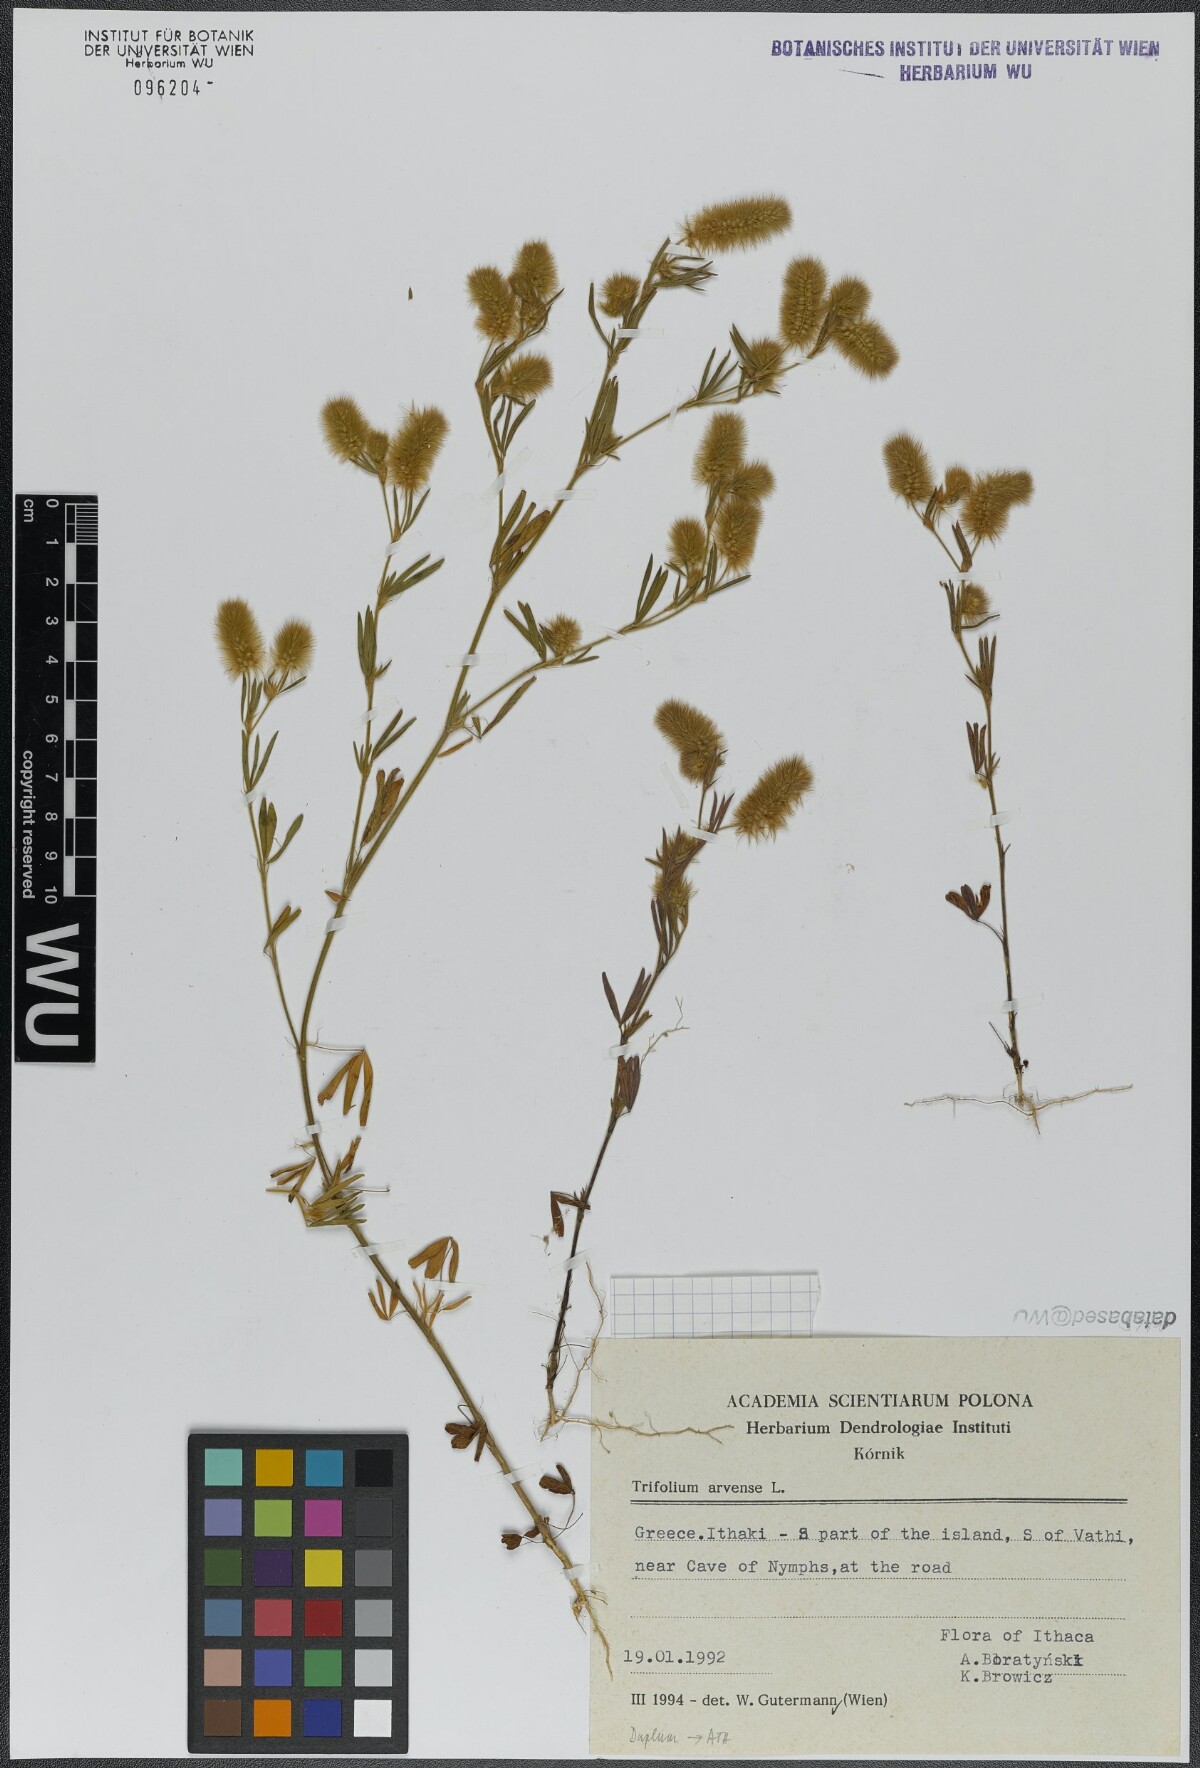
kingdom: Plantae
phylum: Tracheophyta
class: Magnoliopsida
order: Fabales
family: Fabaceae
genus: Trifolium
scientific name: Trifolium arvense
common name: Hare's-foot clover
